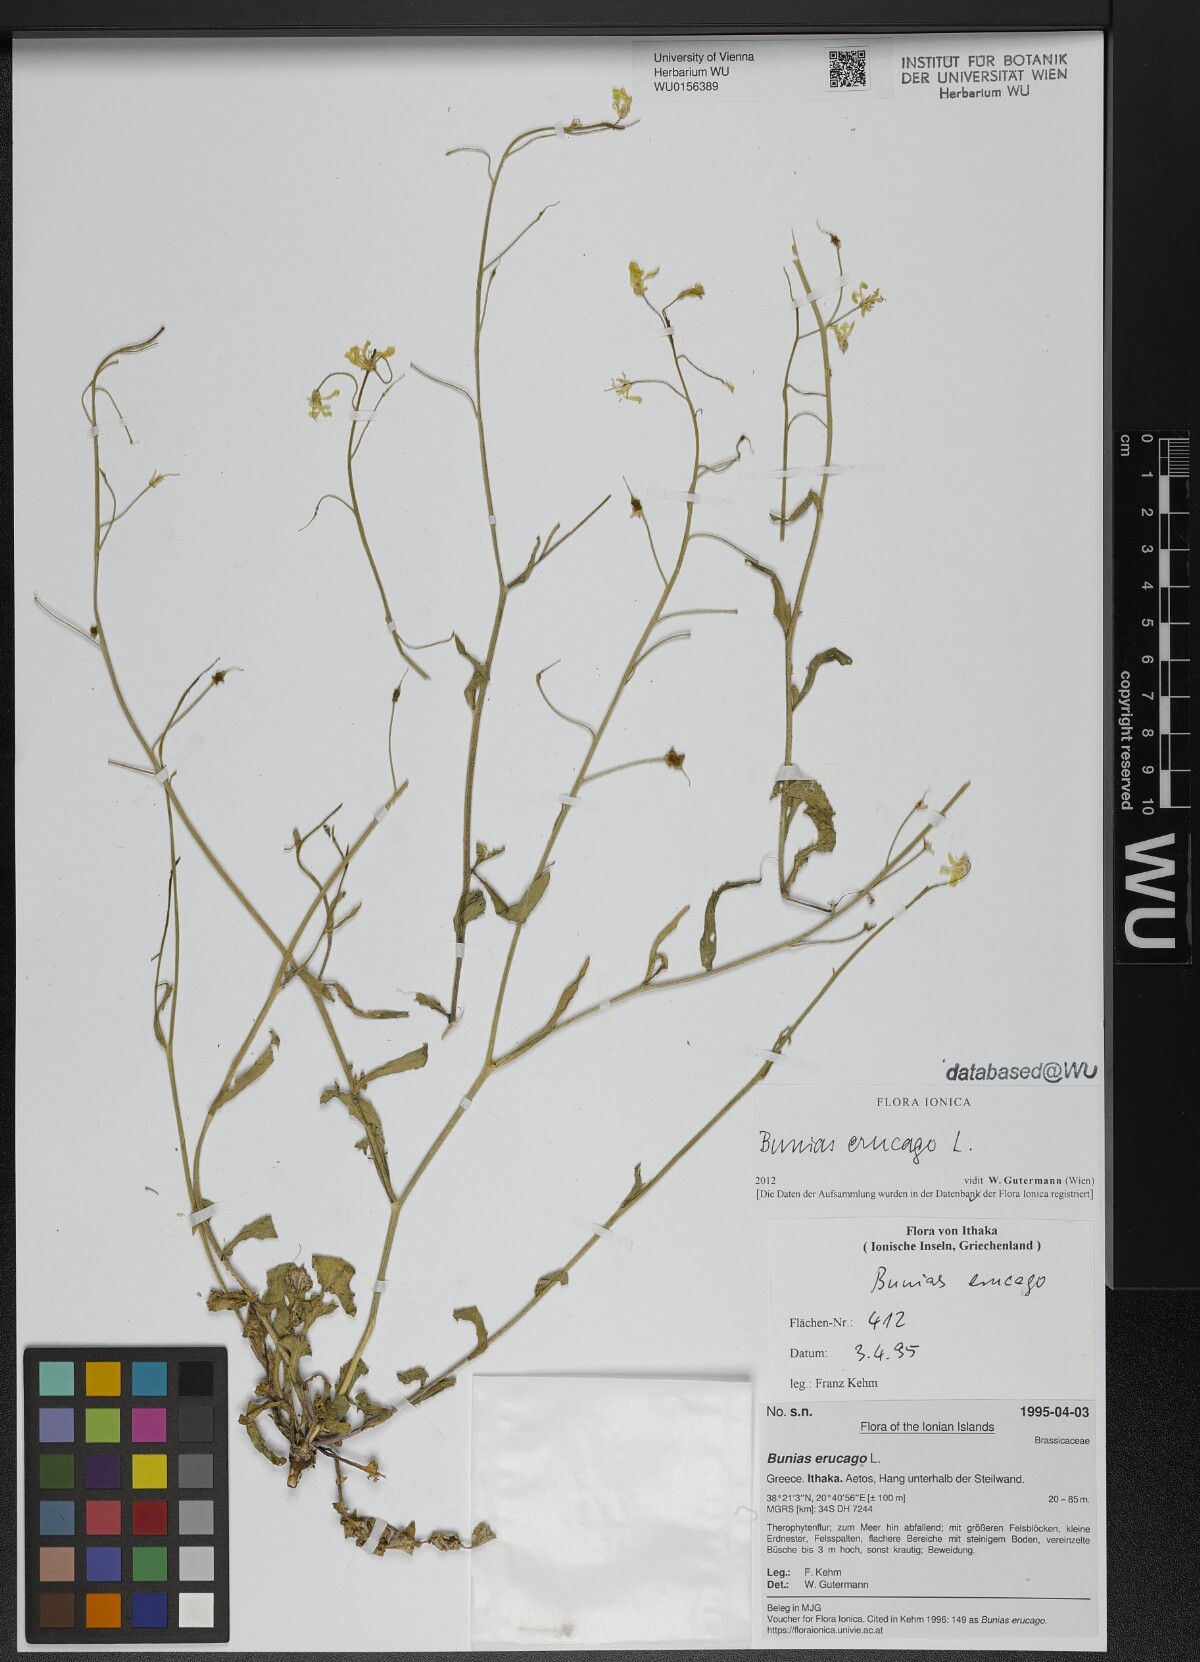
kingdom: Plantae
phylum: Tracheophyta
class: Magnoliopsida
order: Brassicales
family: Brassicaceae
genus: Bunias
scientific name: Bunias erucago
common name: Southern warty-cabbage
